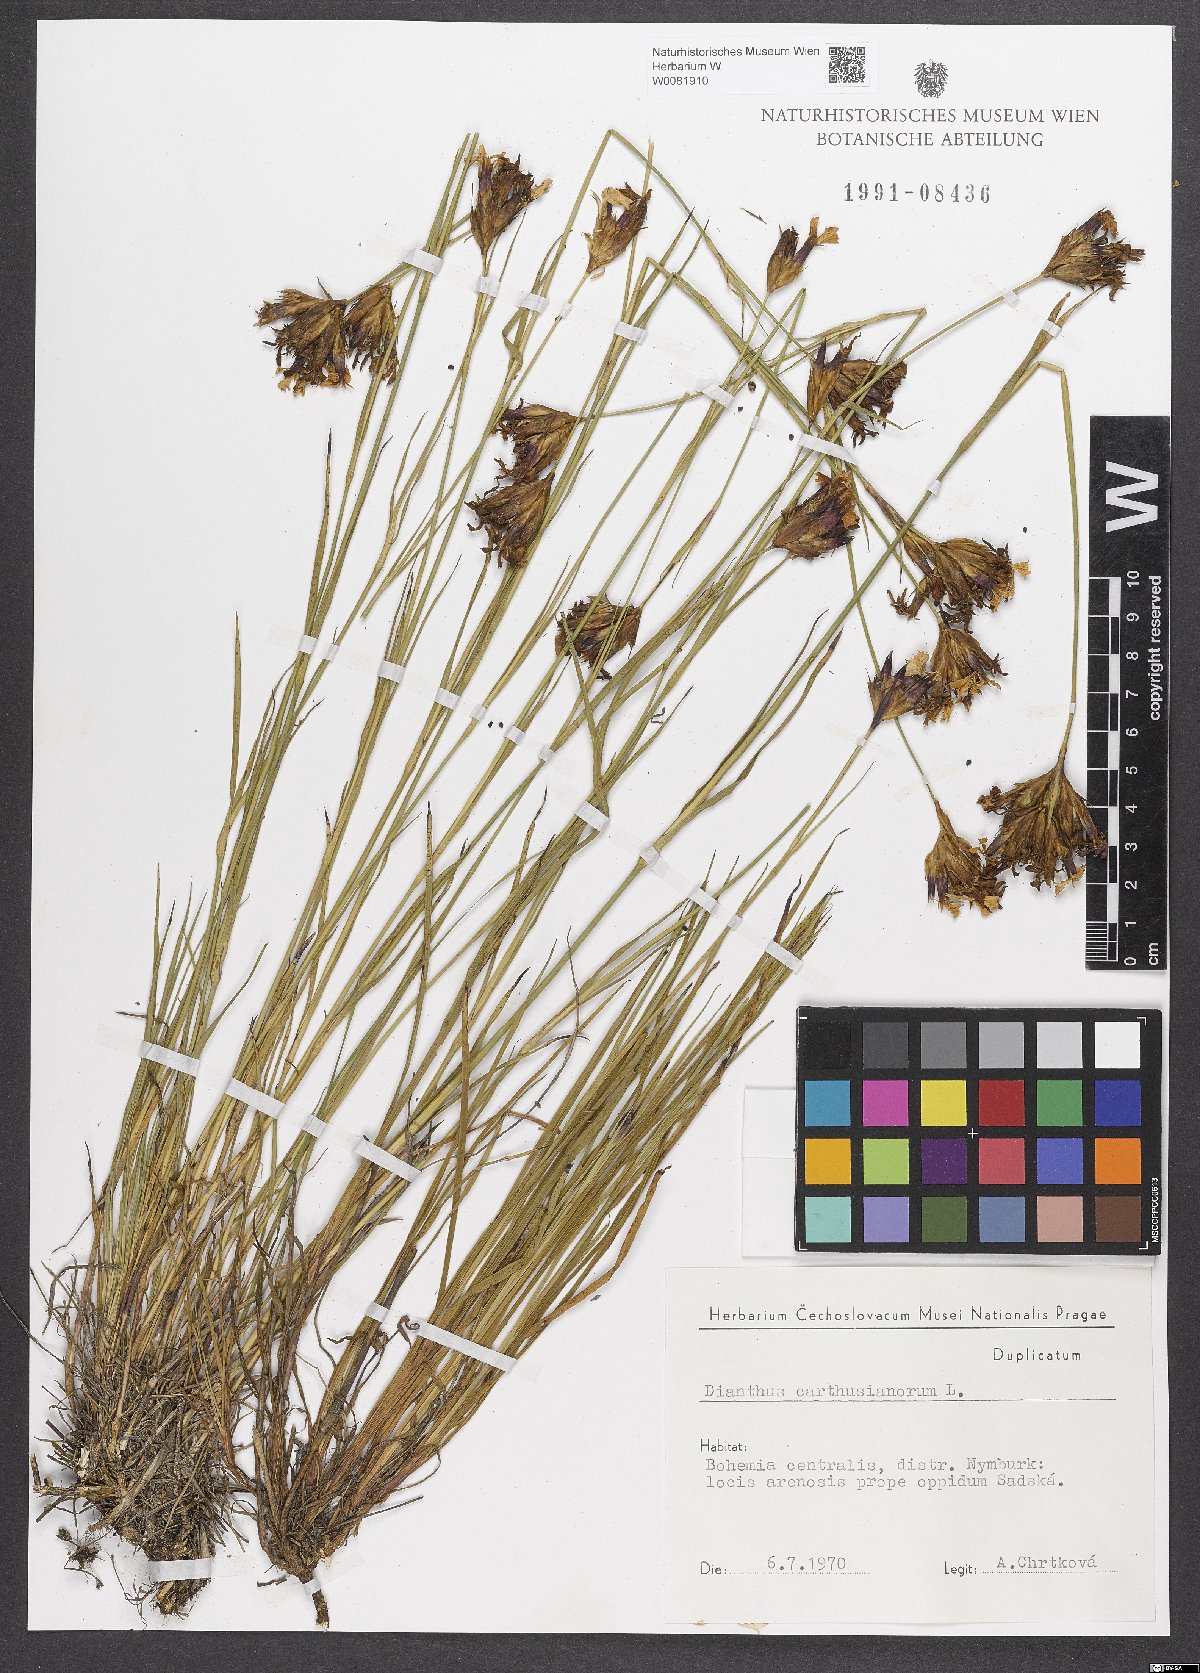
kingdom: Plantae
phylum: Tracheophyta
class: Magnoliopsida
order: Caryophyllales
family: Caryophyllaceae
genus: Dianthus
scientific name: Dianthus carthusianorum
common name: Carthusian pink
